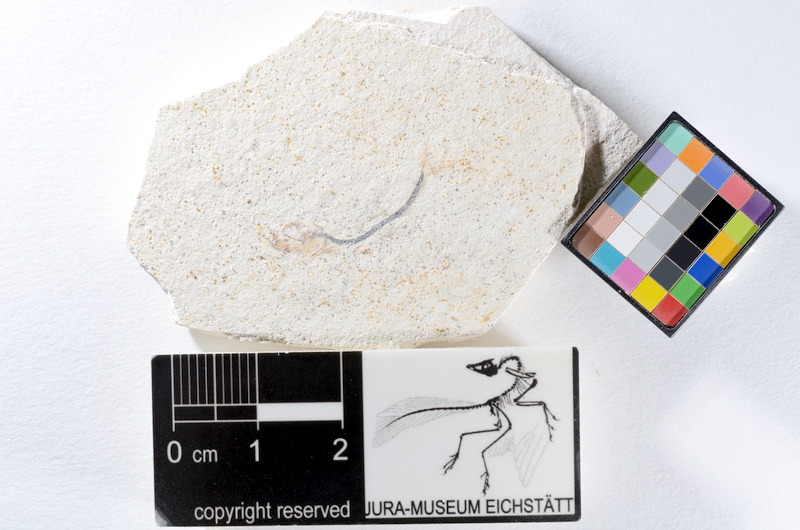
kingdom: Animalia
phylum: Chordata
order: Salmoniformes
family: Orthogonikleithridae
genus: Orthogonikleithrus
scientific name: Orthogonikleithrus hoelli
